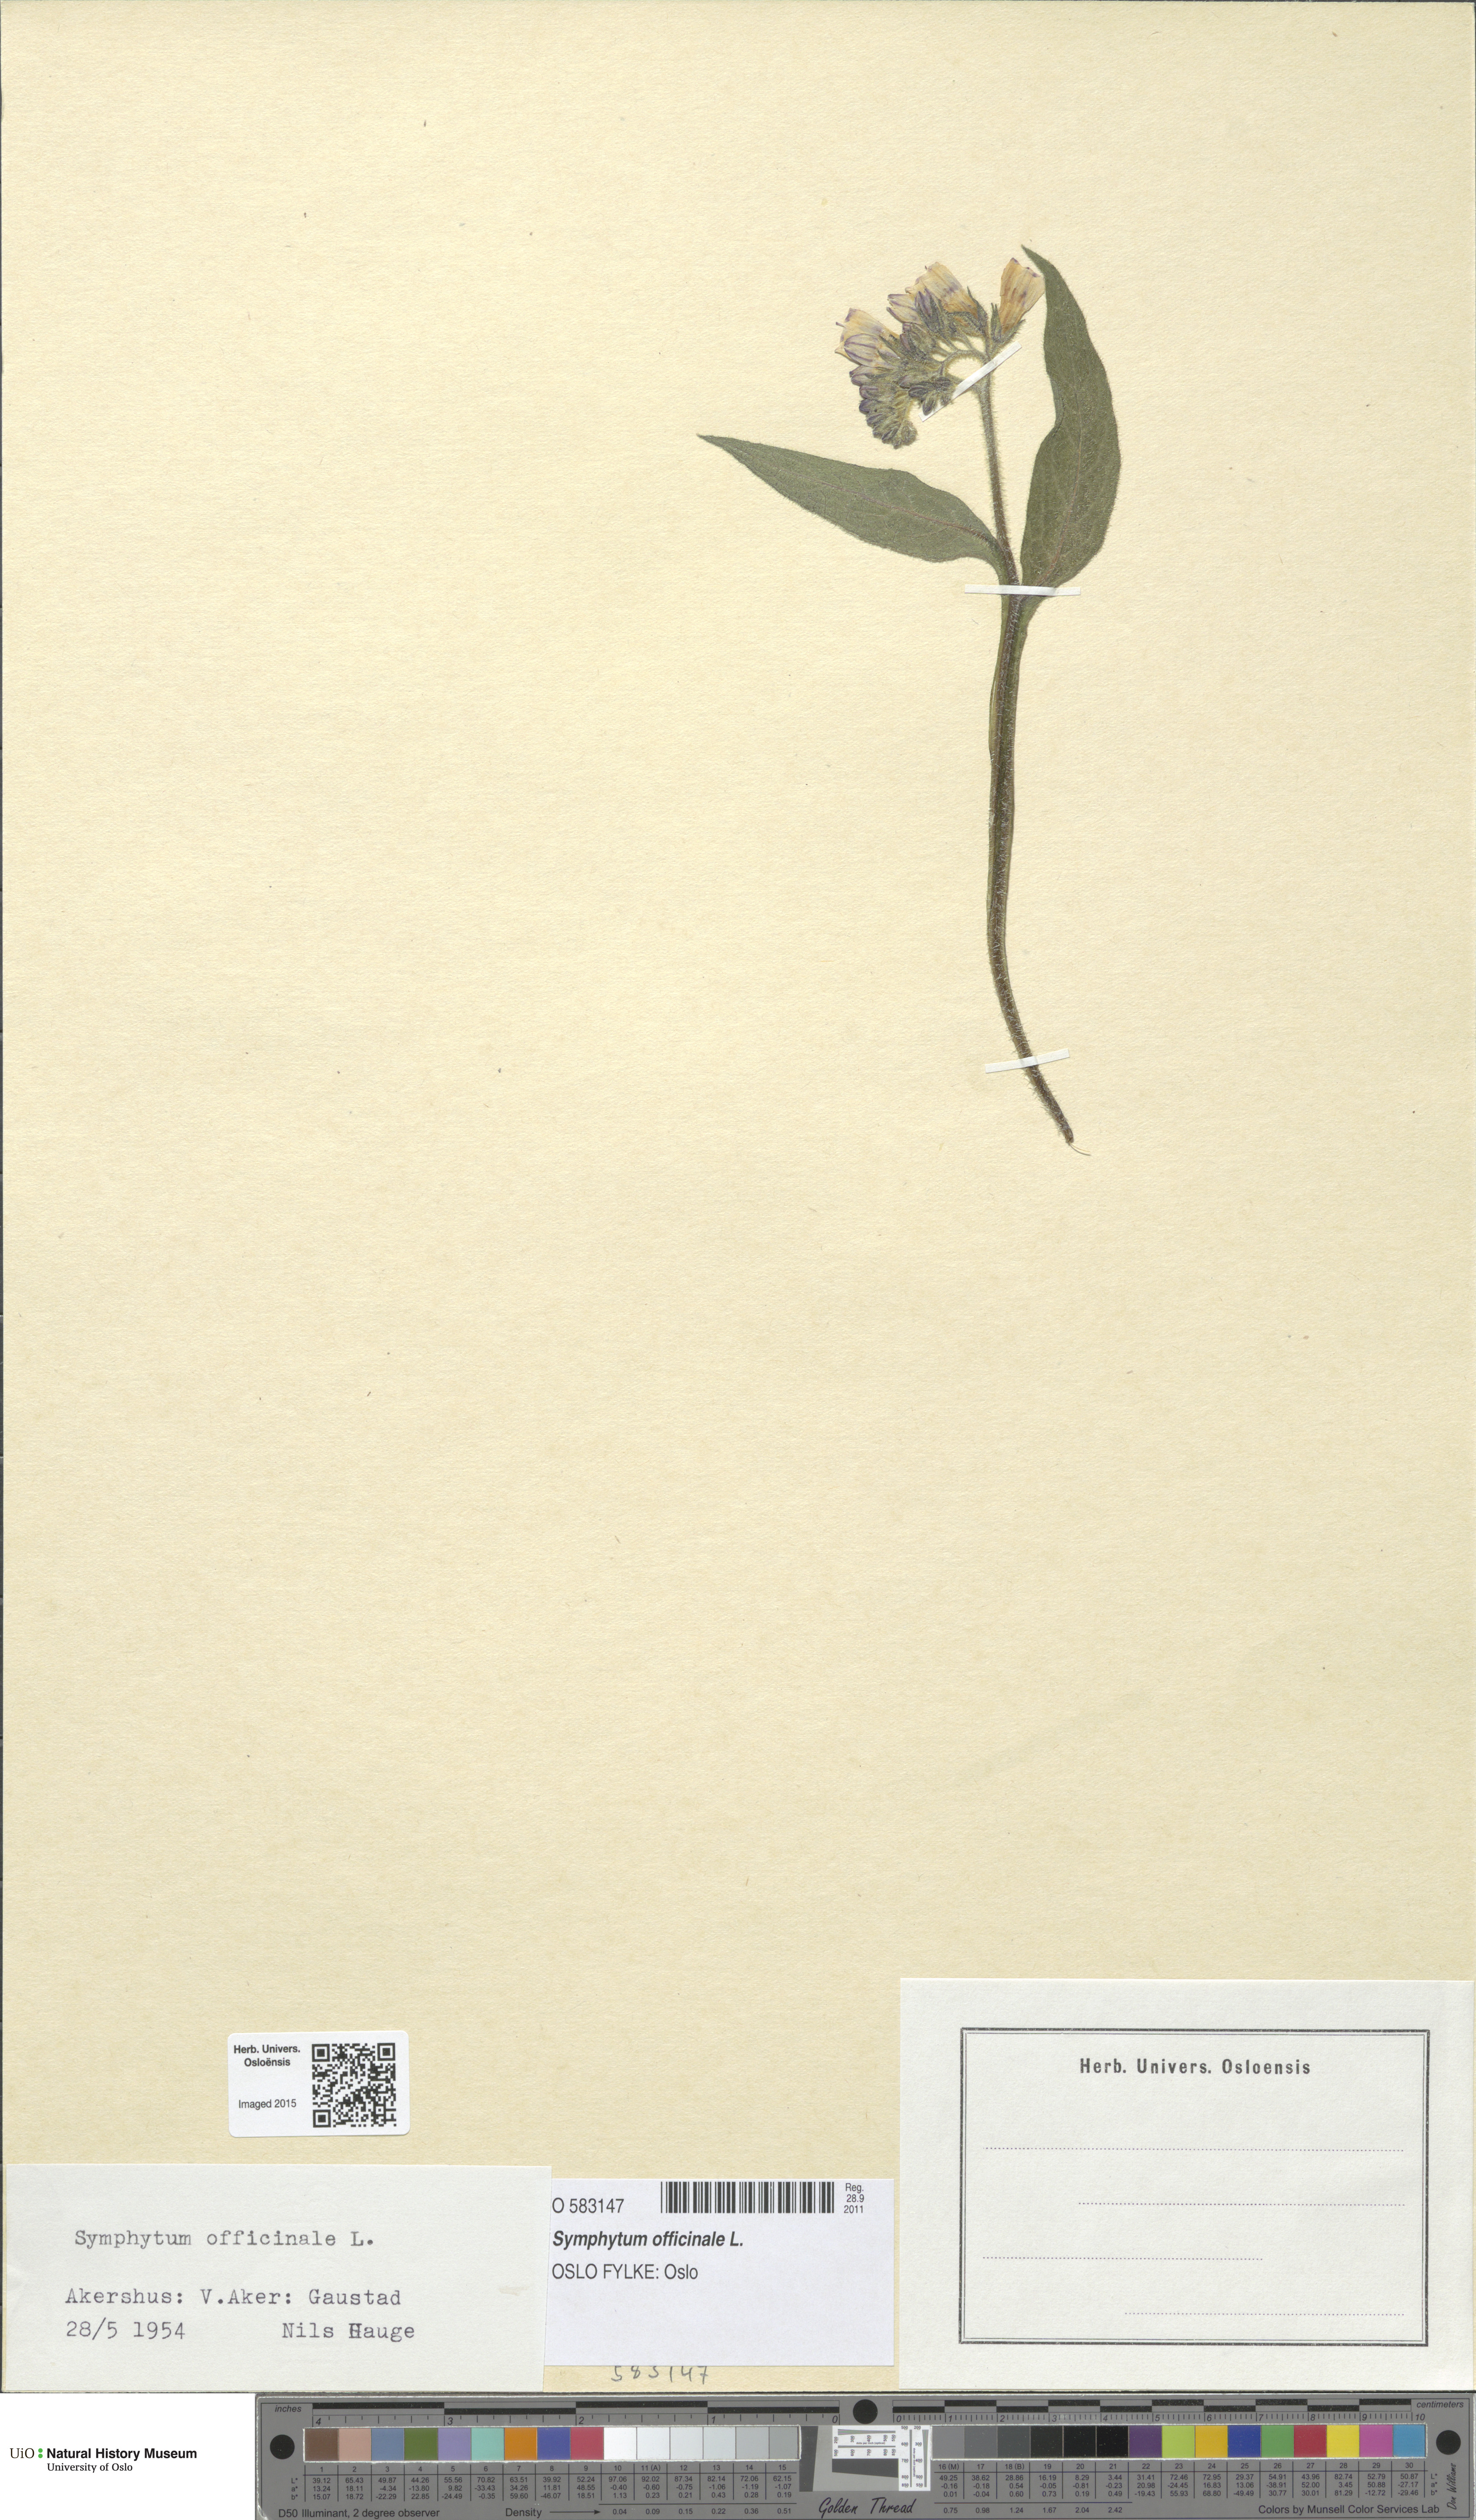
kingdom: Plantae
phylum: Tracheophyta
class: Magnoliopsida
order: Boraginales
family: Boraginaceae
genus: Symphytum
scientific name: Symphytum officinale
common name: Common comfrey
